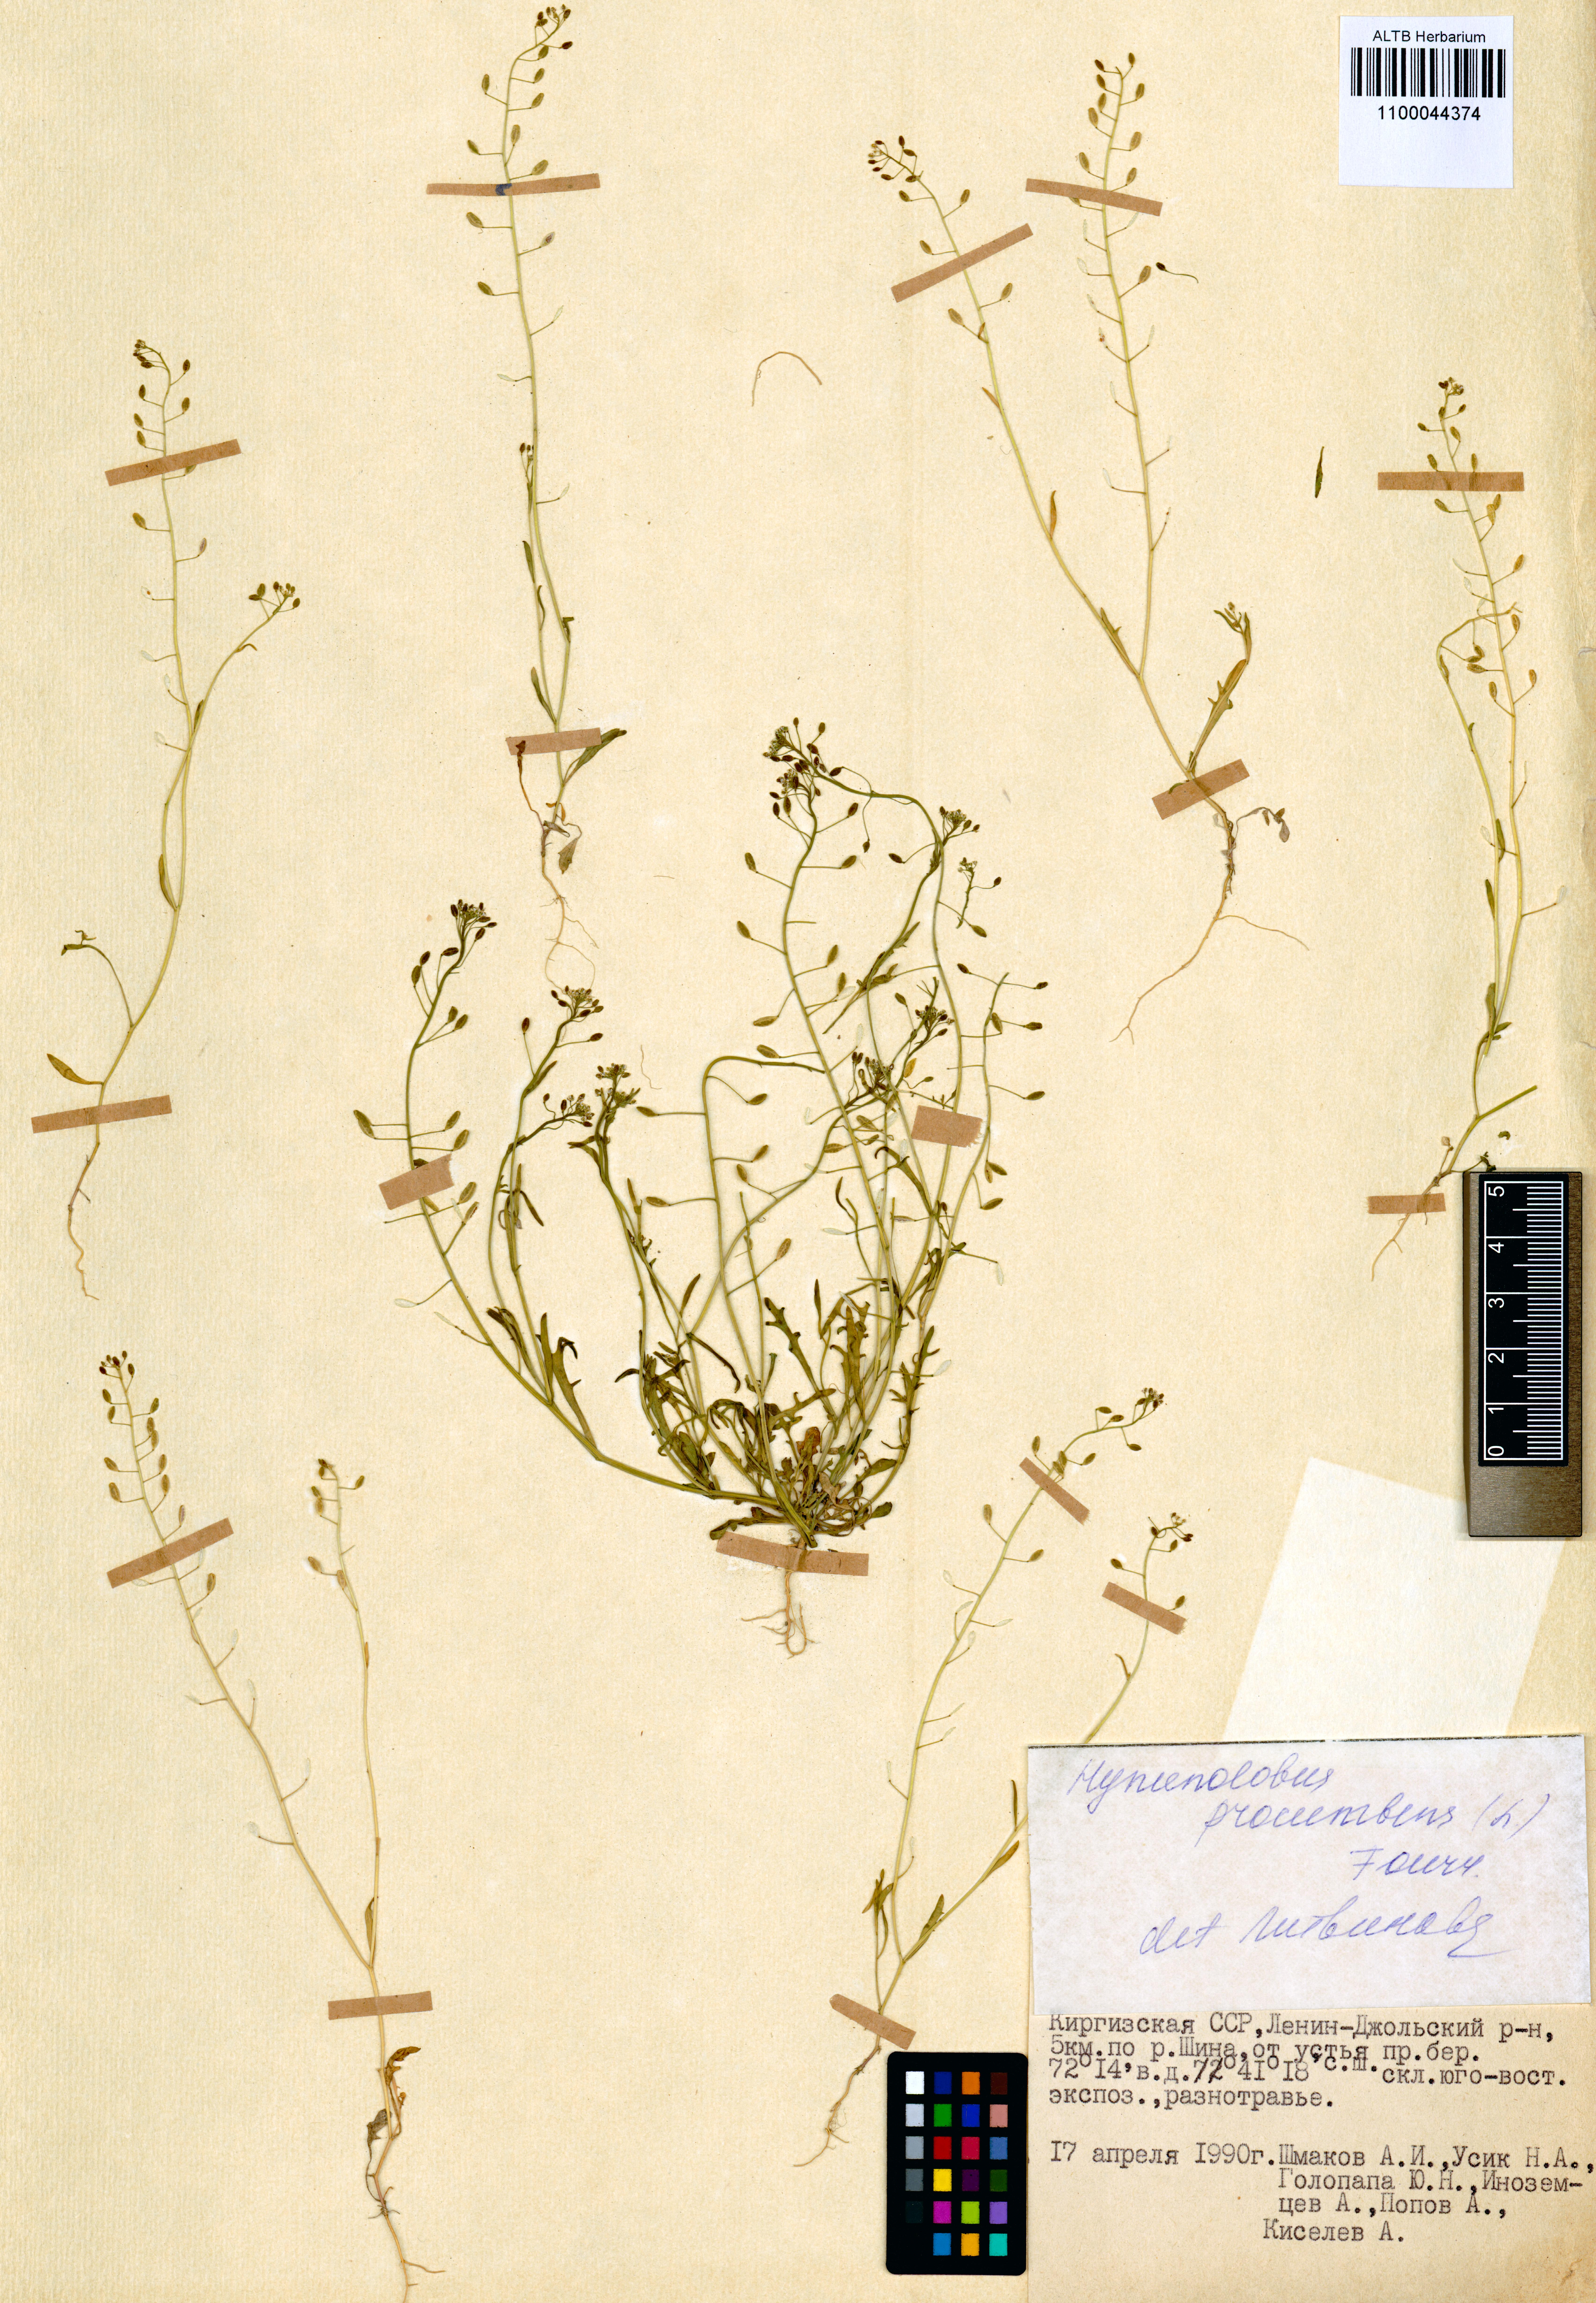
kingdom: Plantae
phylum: Tracheophyta
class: Magnoliopsida
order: Brassicales
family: Brassicaceae
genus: Hornungia
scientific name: Hornungia procumbens
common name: Oval purse
